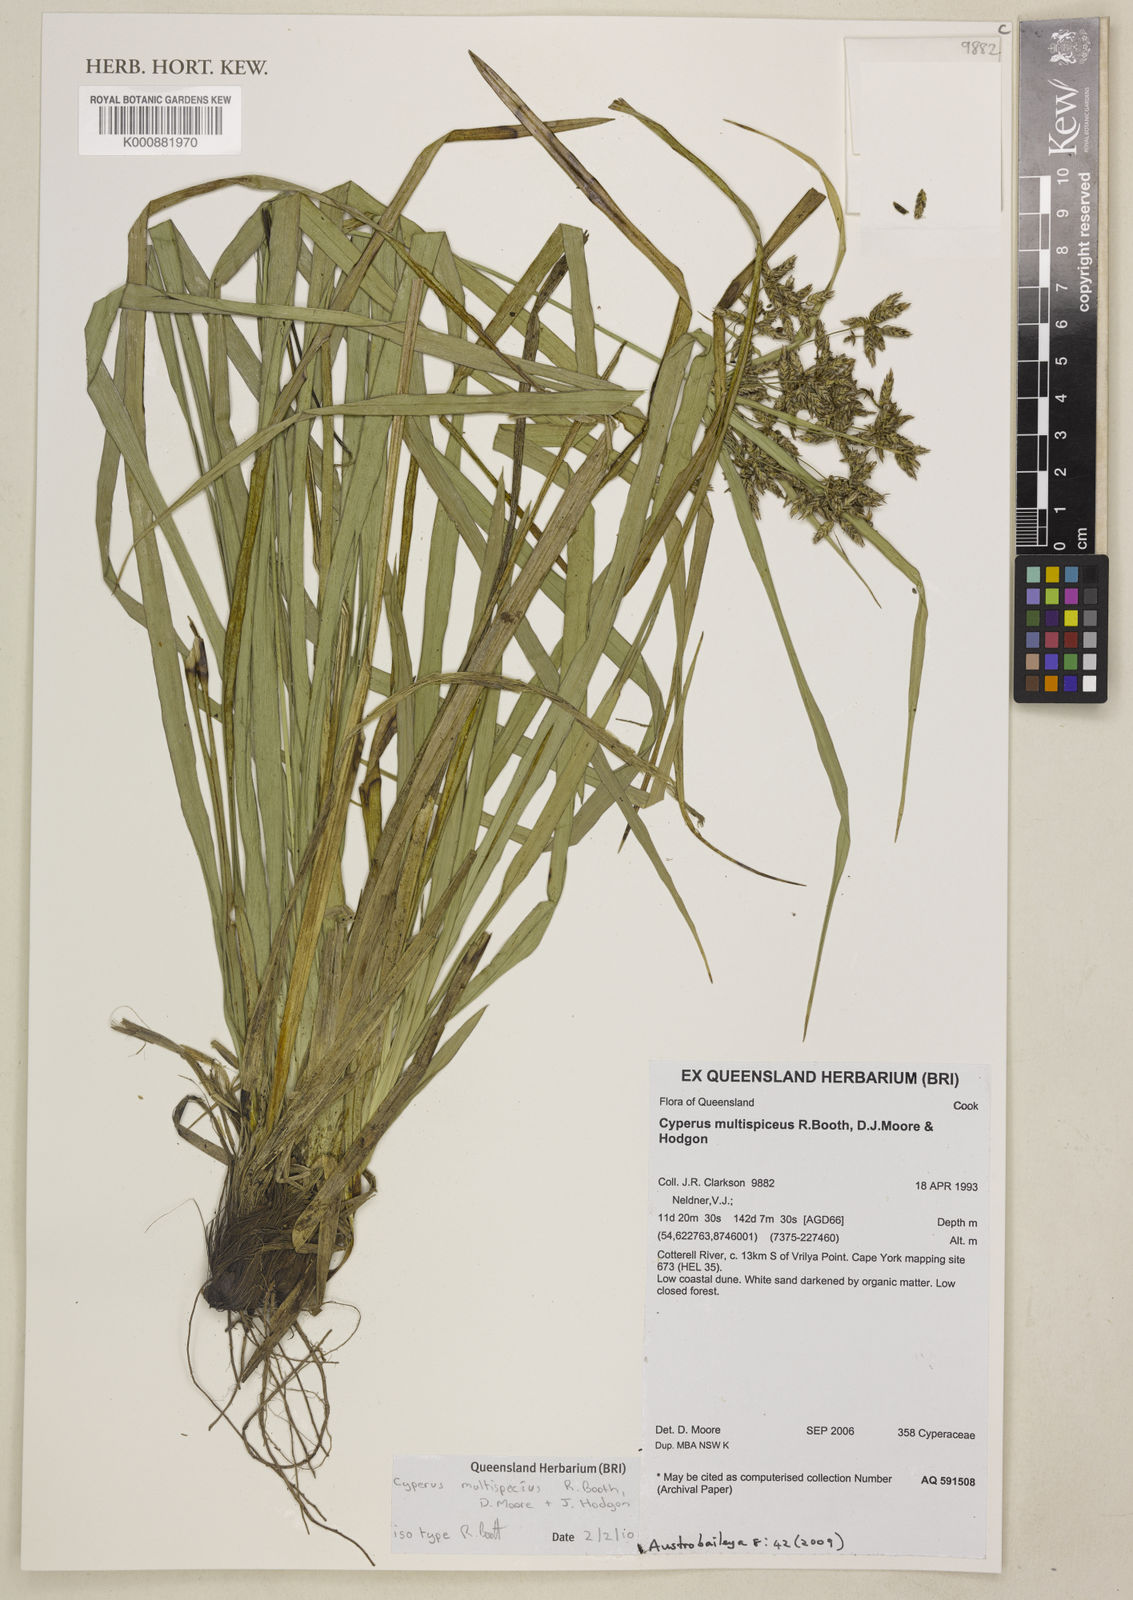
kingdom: Plantae
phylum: Tracheophyta
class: Liliopsida
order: Poales
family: Cyperaceae
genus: Cyperus
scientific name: Cyperus multispiceus
